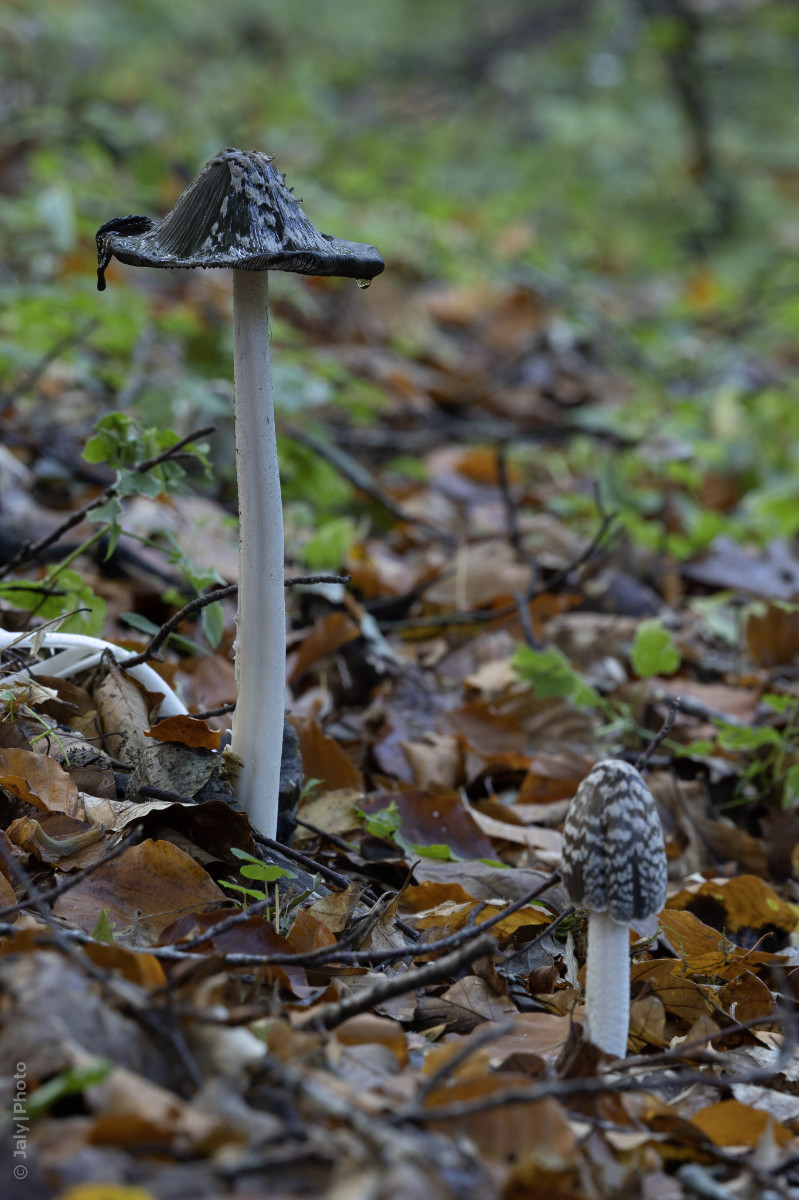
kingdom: Fungi
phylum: Basidiomycota
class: Agaricomycetes
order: Agaricales
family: Psathyrellaceae
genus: Coprinopsis
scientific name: Coprinopsis picacea
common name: skade-blækhat
